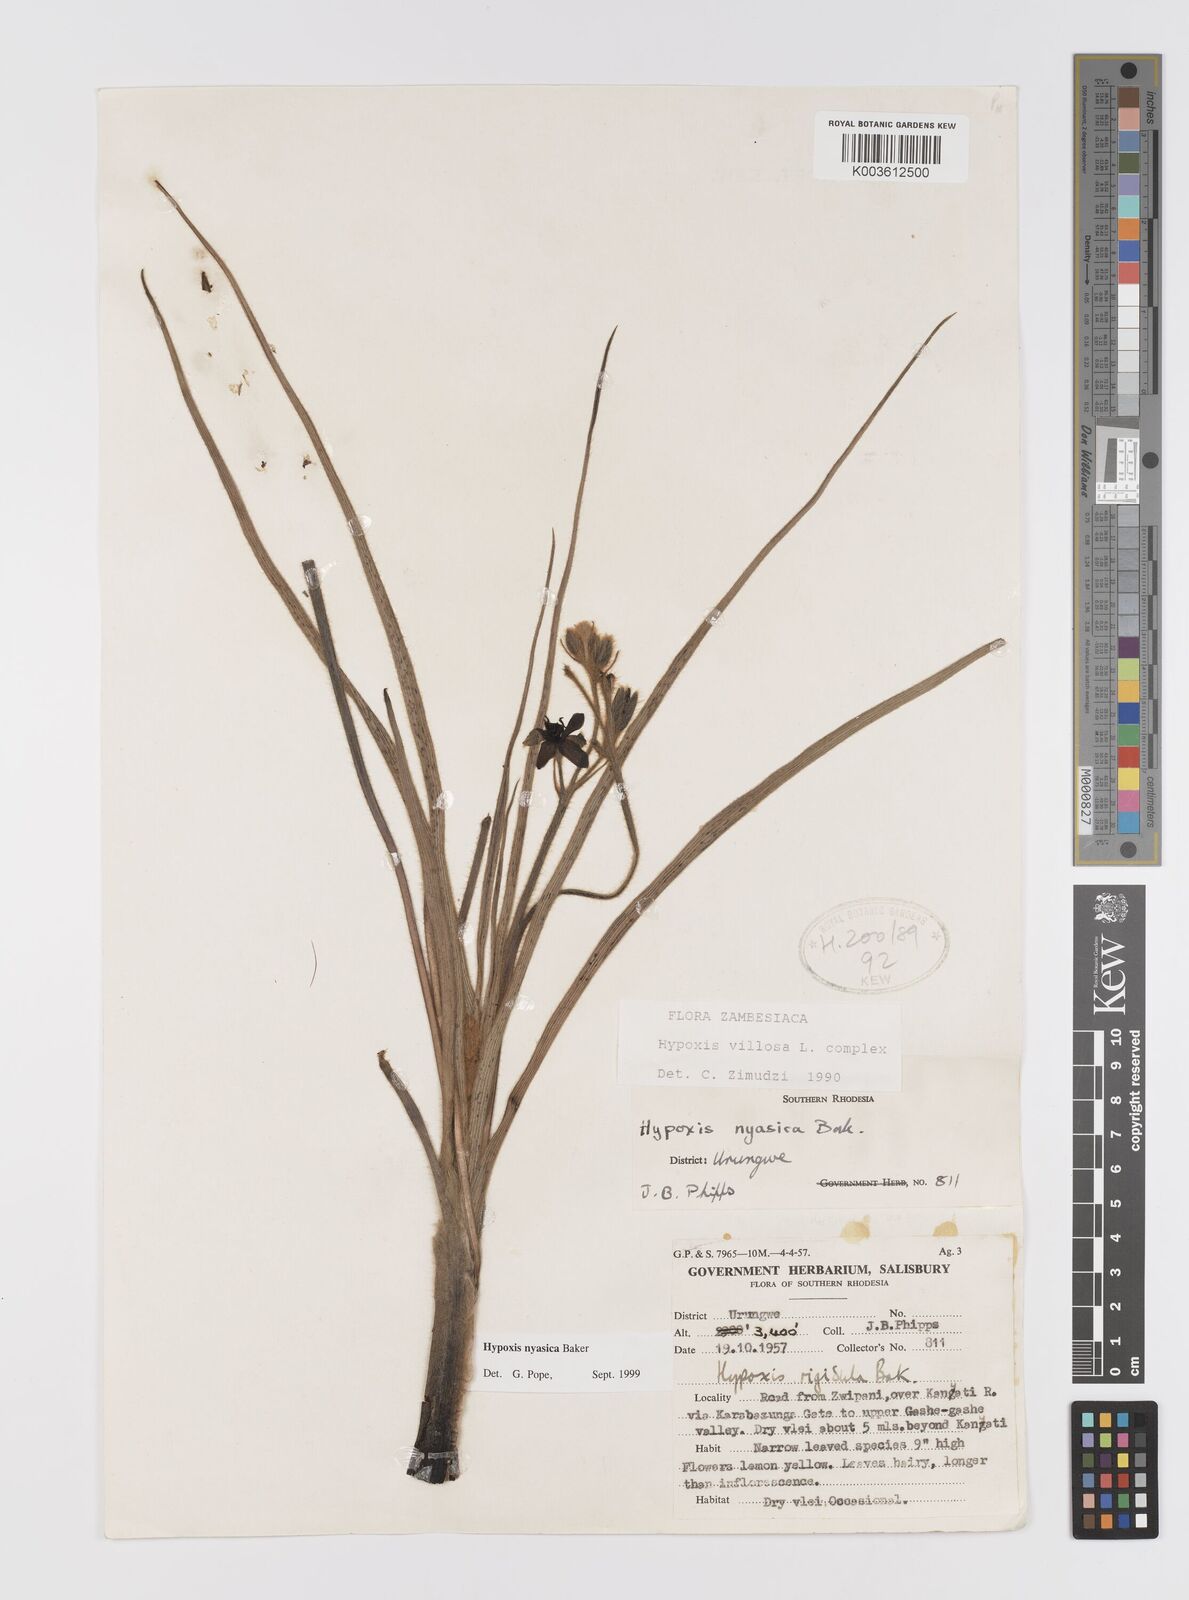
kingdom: Plantae
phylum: Tracheophyta
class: Liliopsida
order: Asparagales
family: Hypoxidaceae
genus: Hypoxis
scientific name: Hypoxis nyasica
